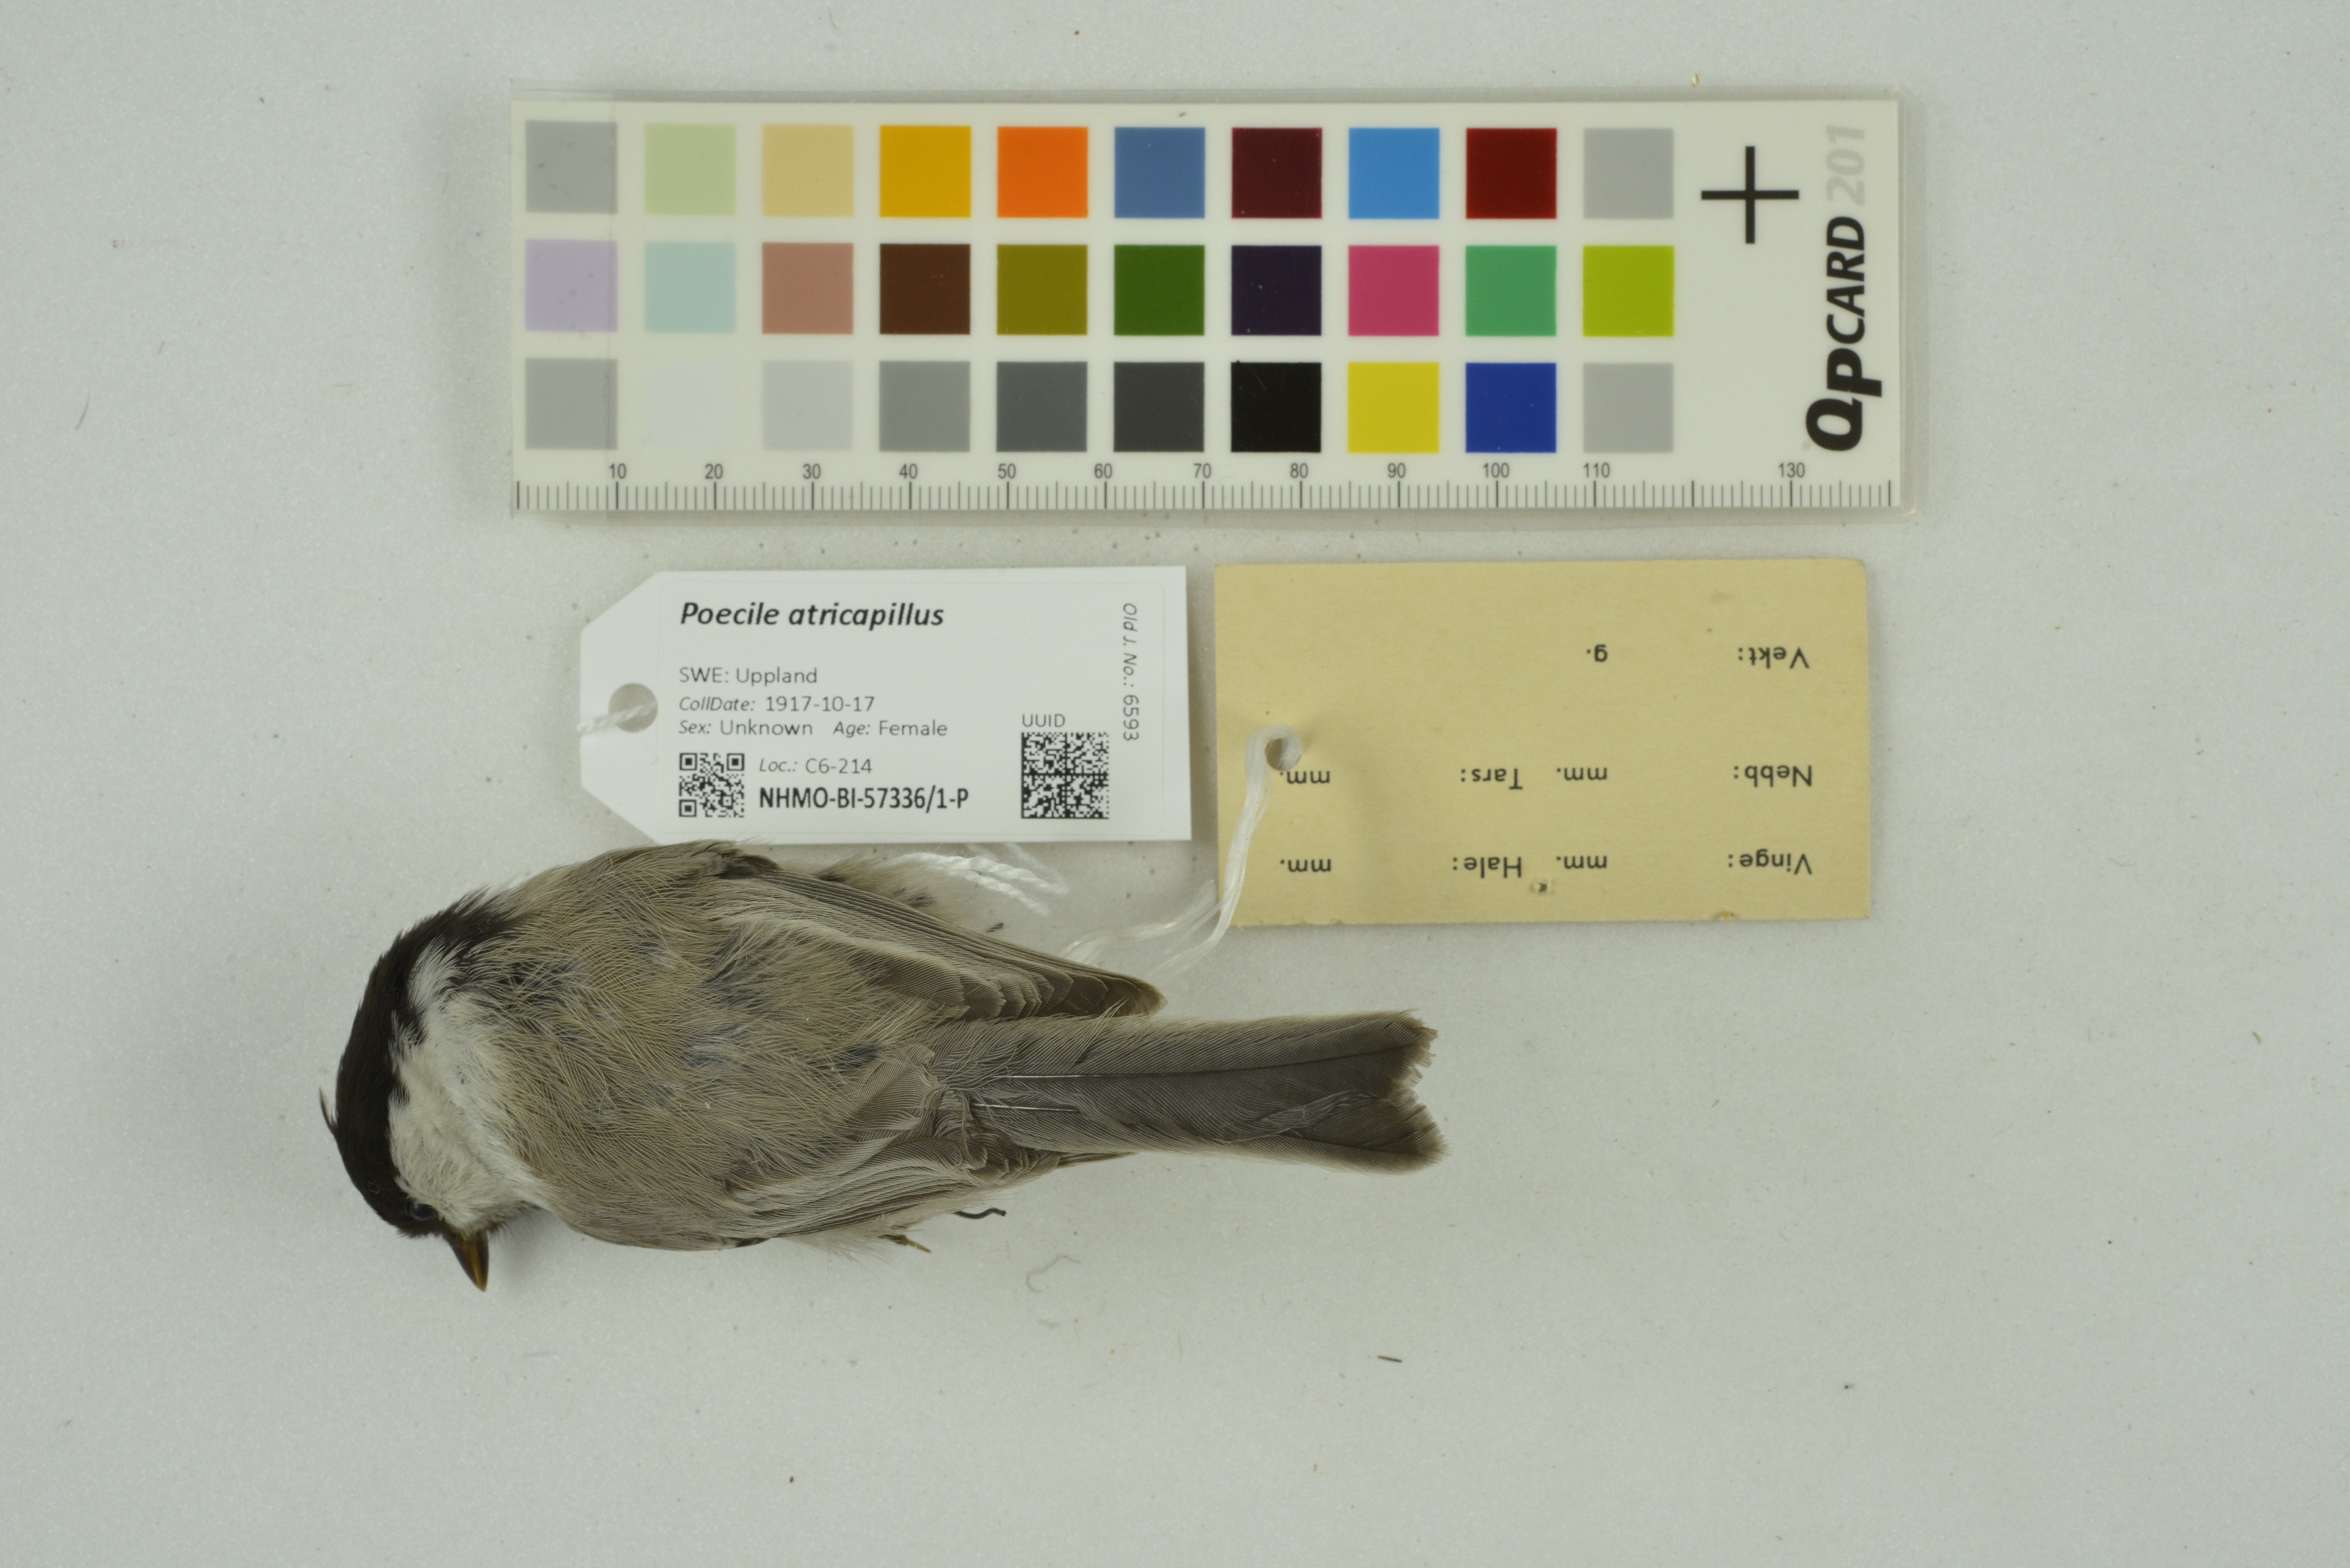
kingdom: Animalia
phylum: Chordata
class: Aves
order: Passeriformes
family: Paridae
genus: Poecile
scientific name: Poecile montanus
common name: Willow tit
